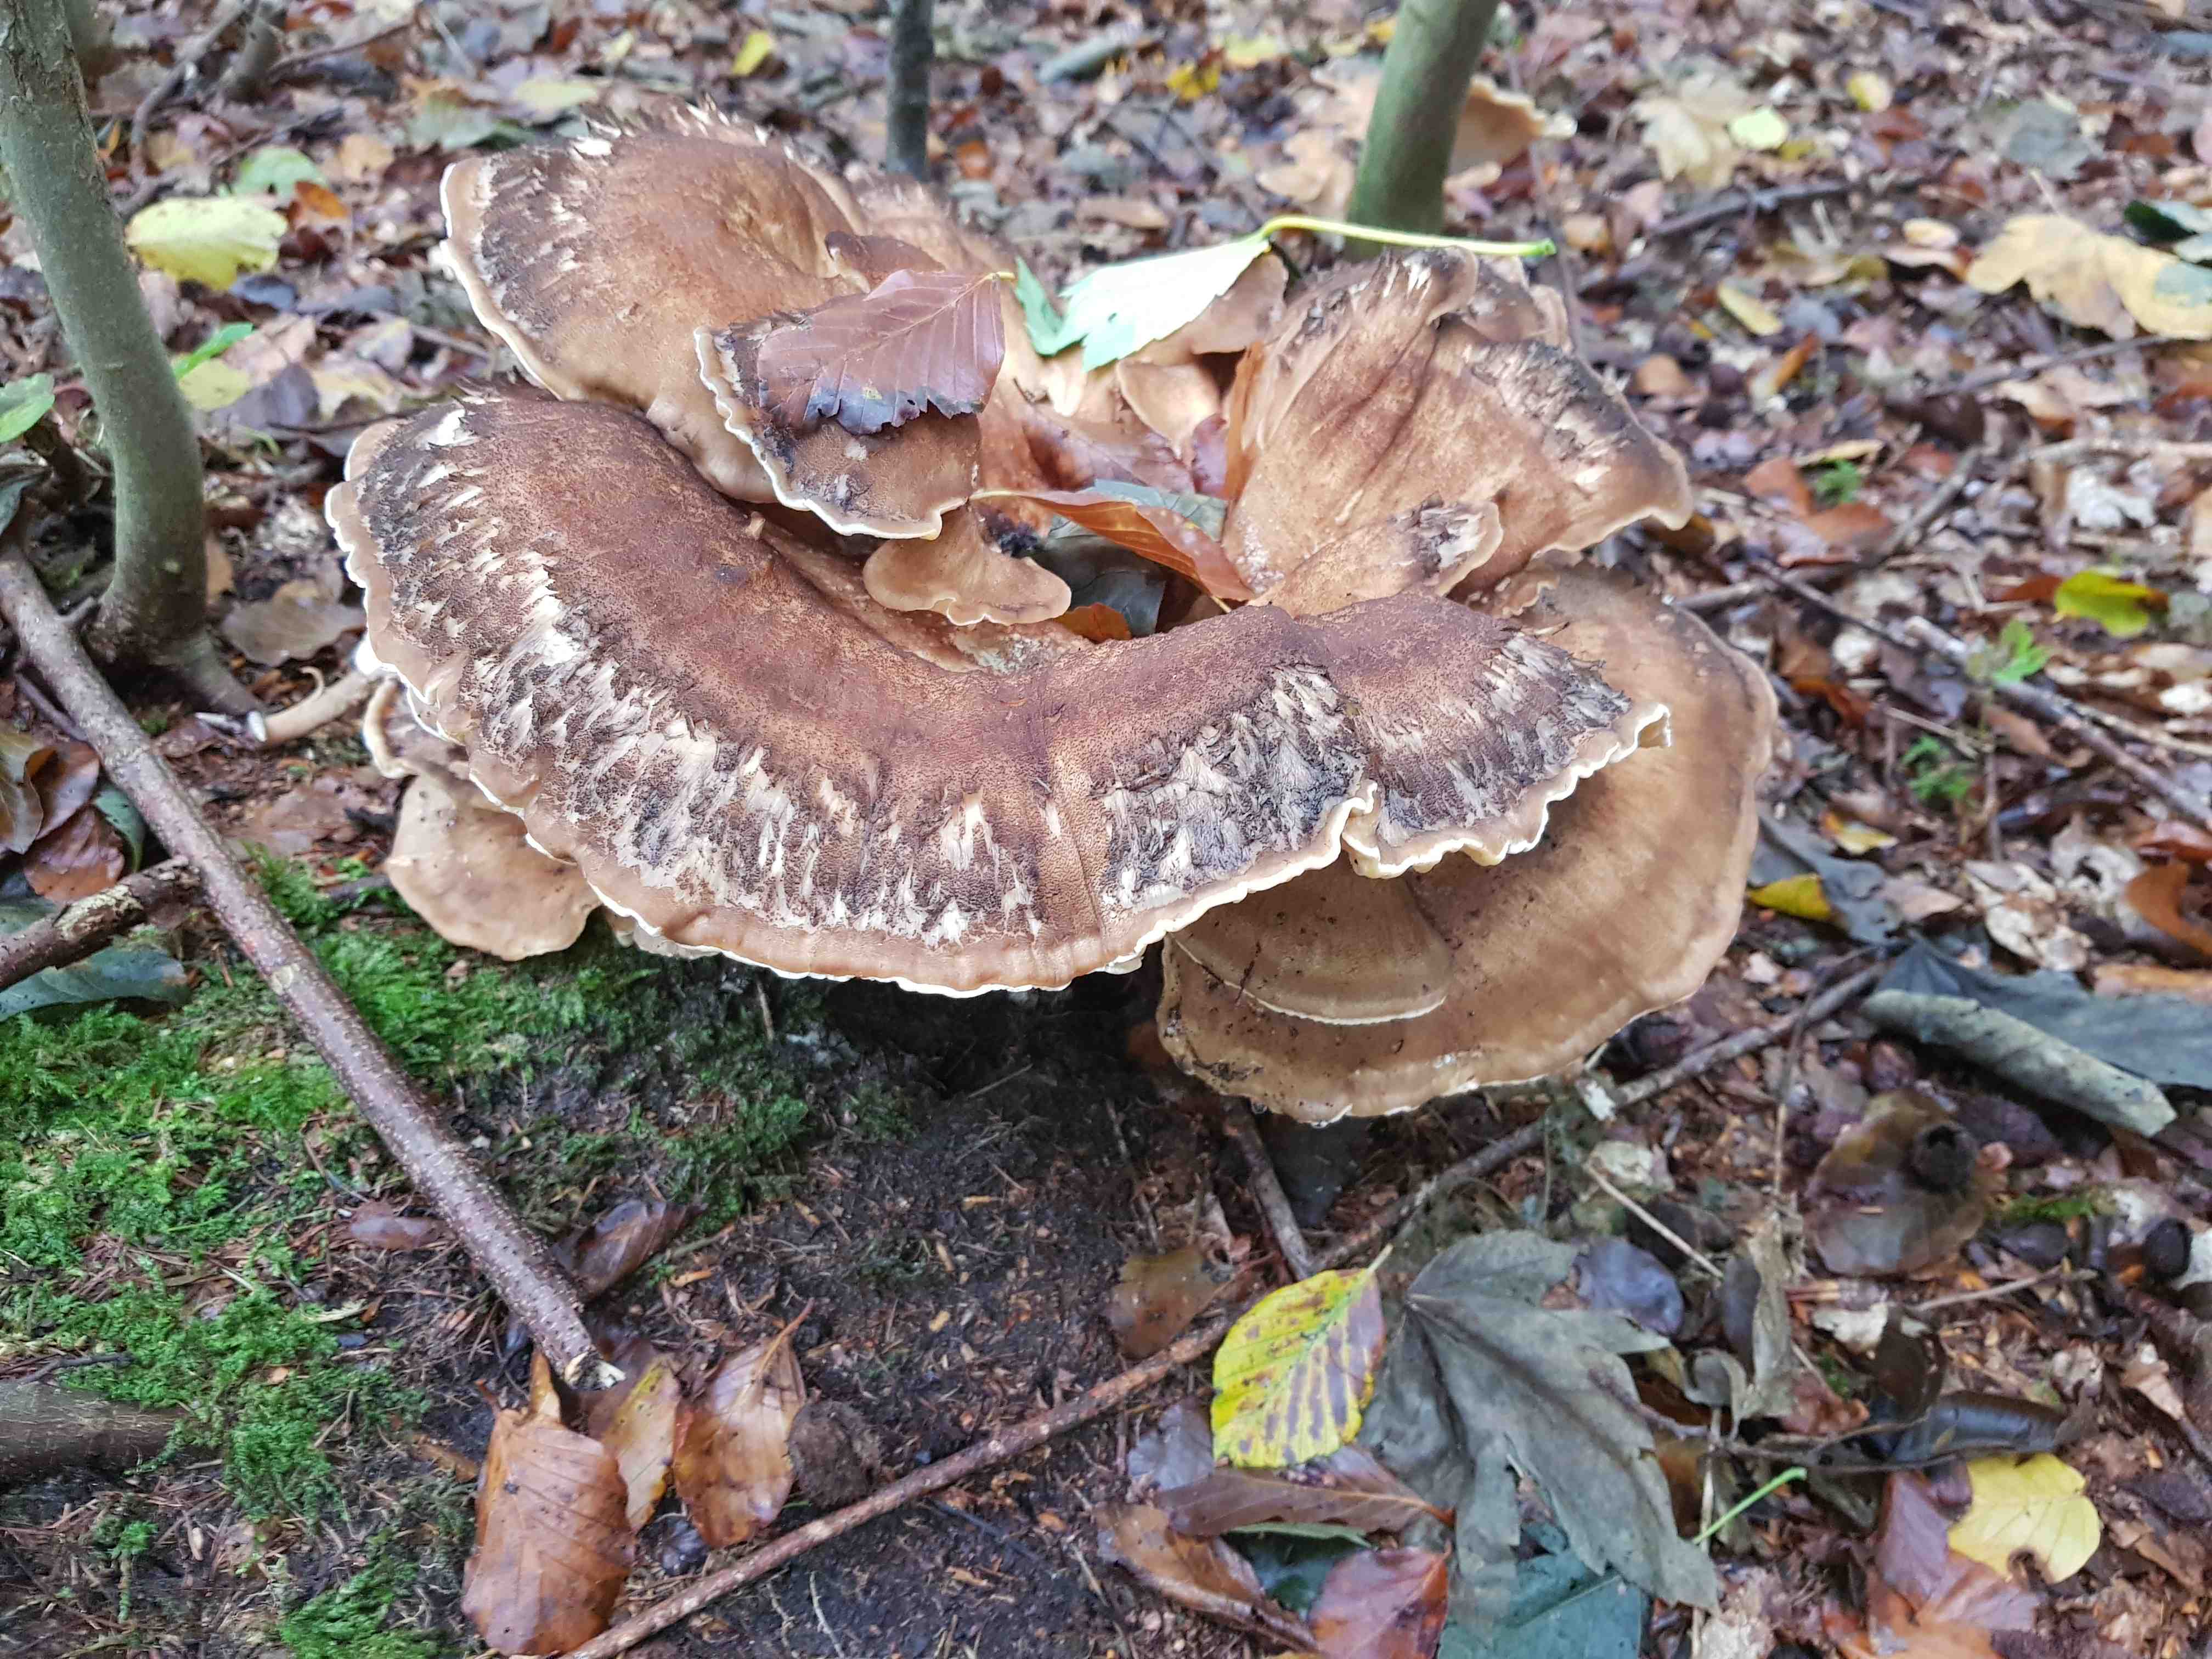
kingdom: Fungi
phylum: Basidiomycota
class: Agaricomycetes
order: Polyporales
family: Meripilaceae
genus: Meripilus
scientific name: Meripilus giganteus
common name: kæmpeporesvamp
